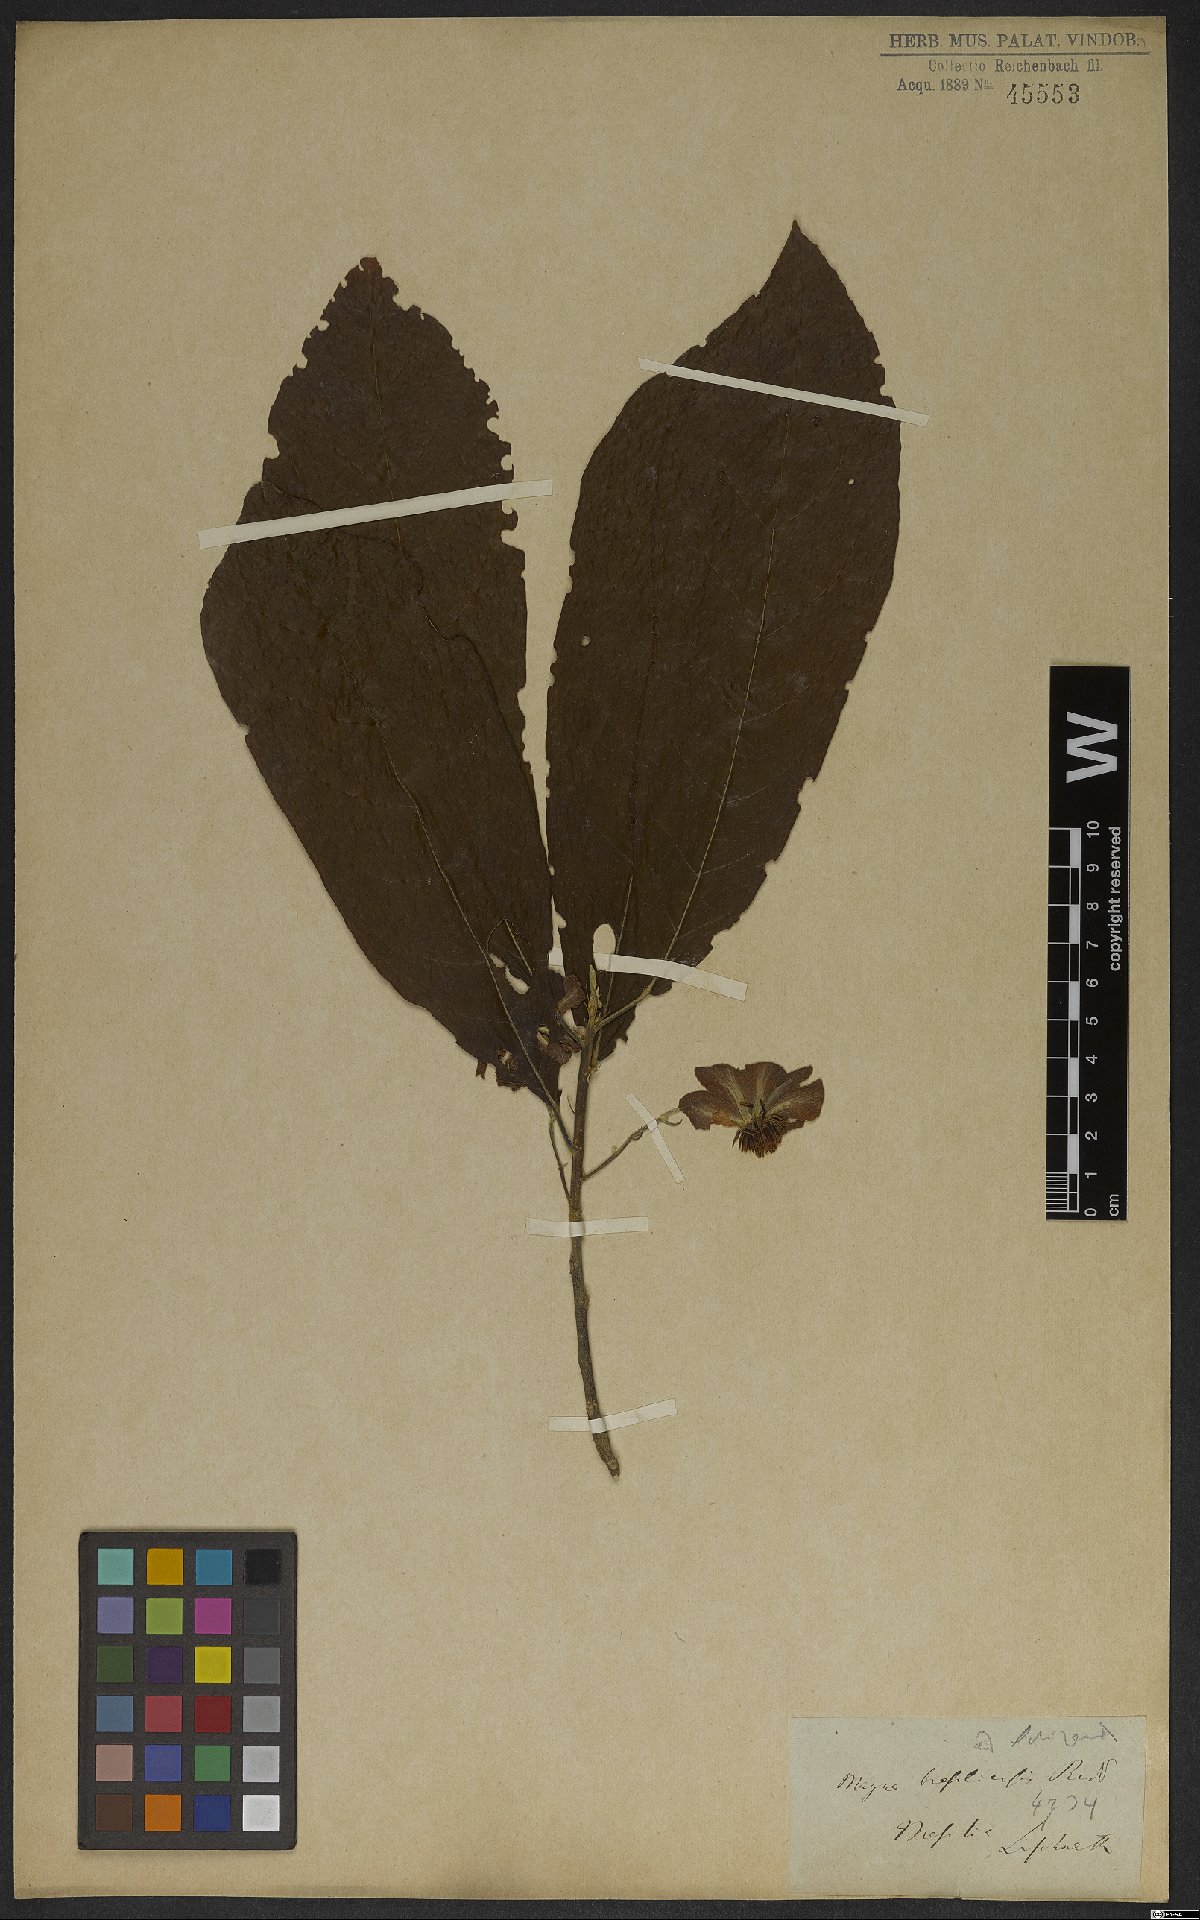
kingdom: Plantae
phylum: Tracheophyta
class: Magnoliopsida
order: Malpighiales
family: Achariaceae
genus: Carpotroche
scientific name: Carpotroche brasiliensis
